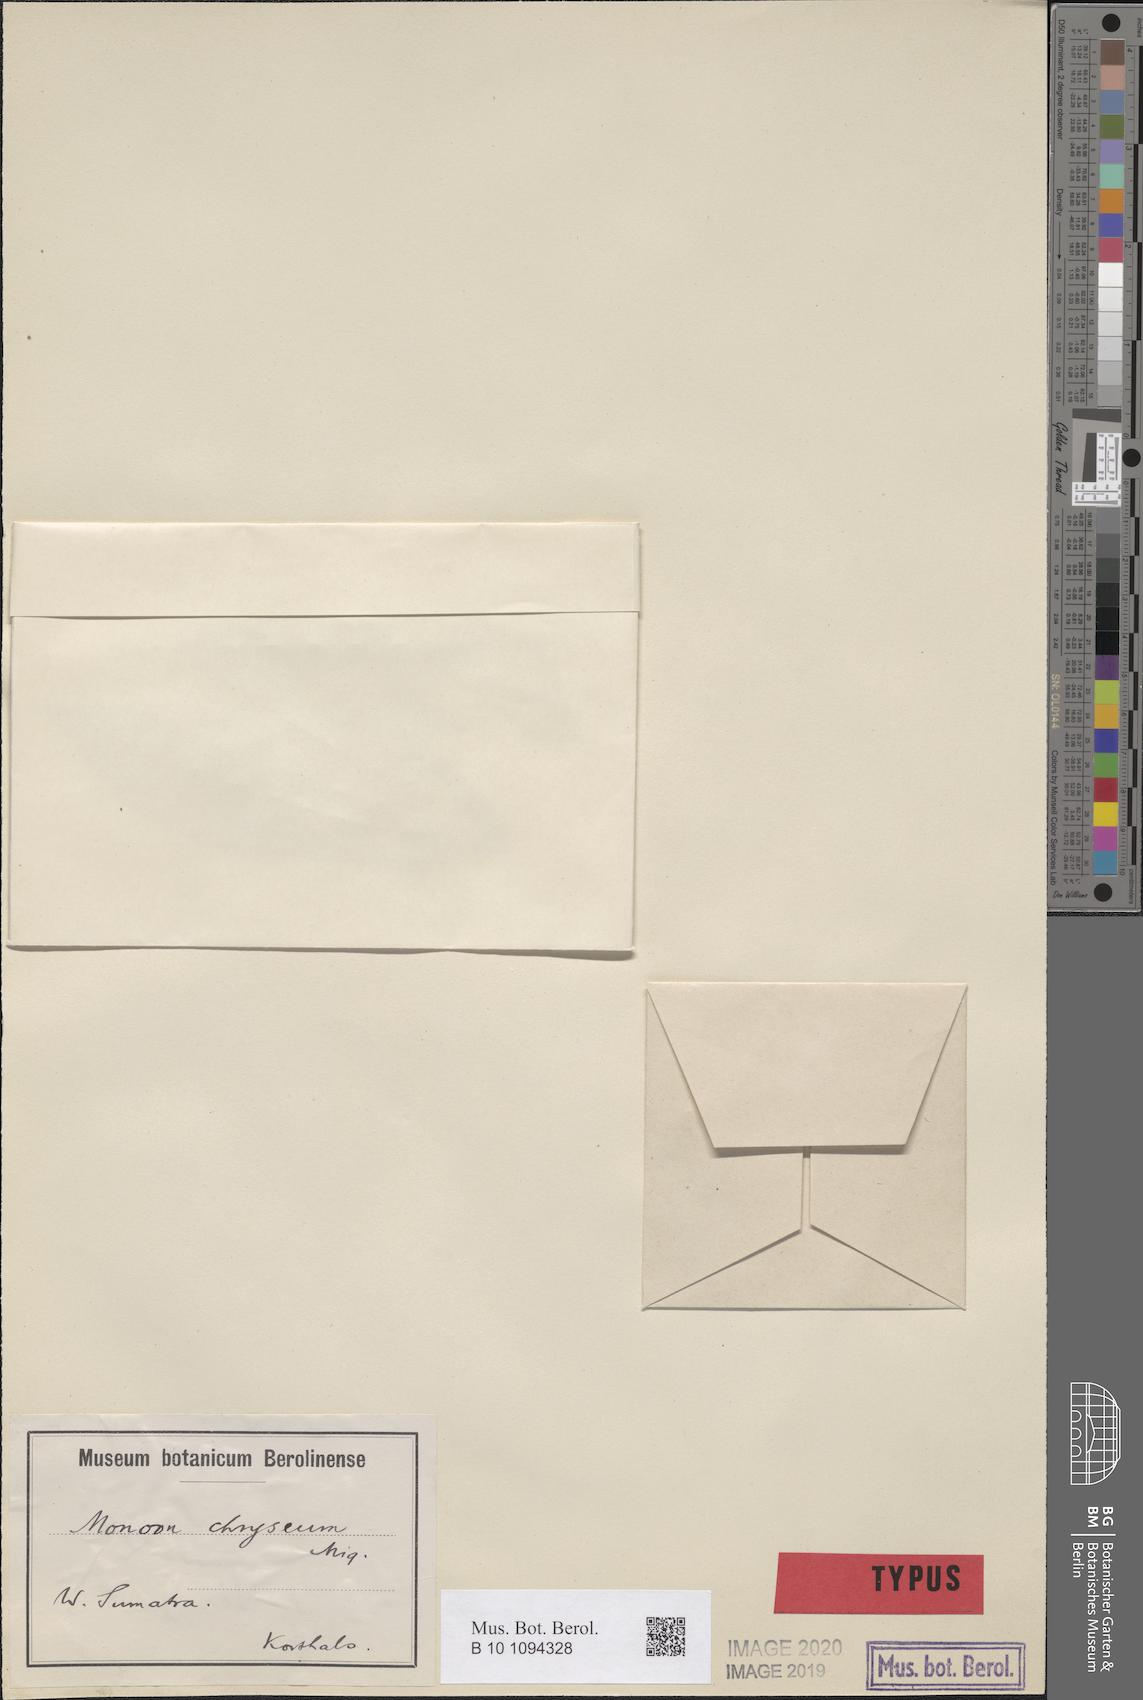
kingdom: Plantae
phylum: Tracheophyta
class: Magnoliopsida
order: Magnoliales
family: Annonaceae
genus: Desmos
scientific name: Desmos chryseus
